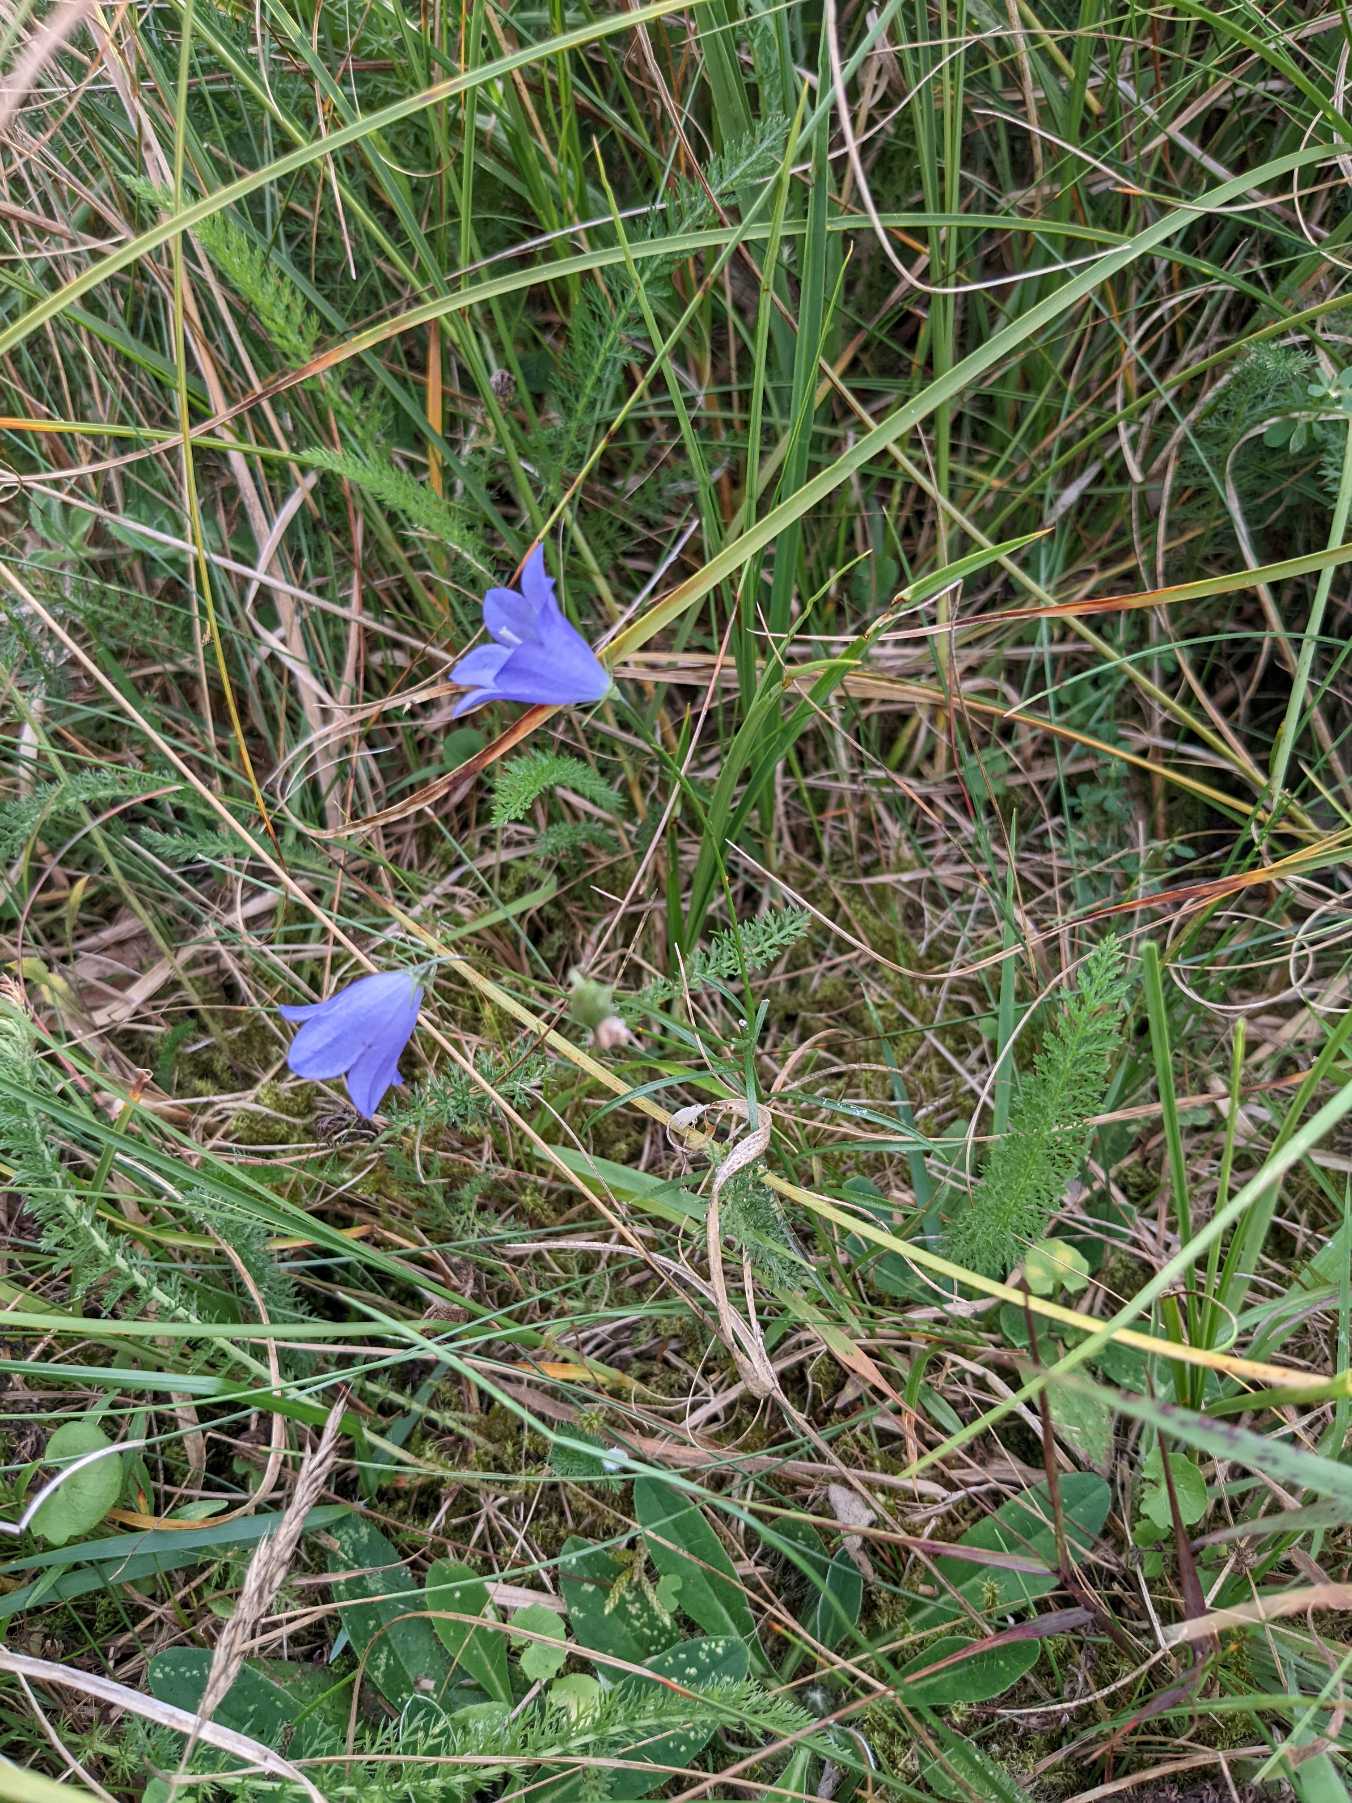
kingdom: Plantae
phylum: Tracheophyta
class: Magnoliopsida
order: Asterales
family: Campanulaceae
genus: Campanula
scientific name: Campanula rotundifolia
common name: Liden klokke
